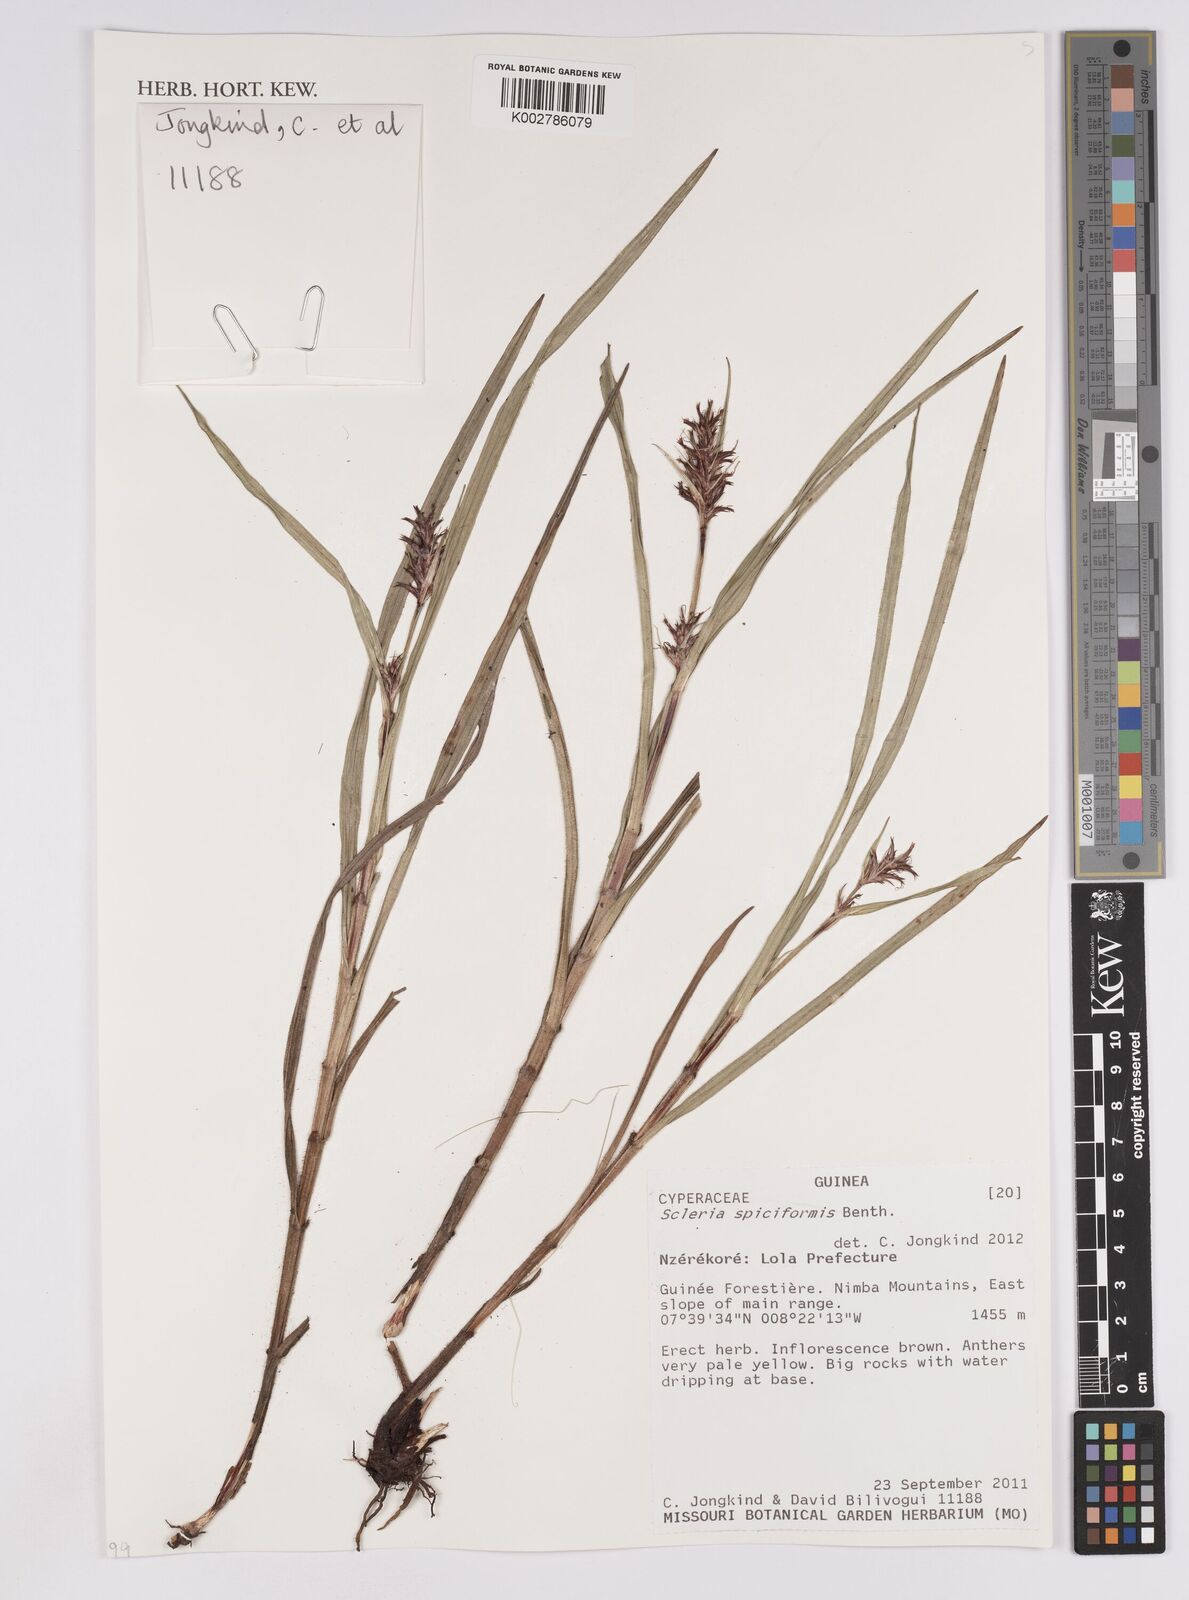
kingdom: Plantae
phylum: Tracheophyta
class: Liliopsida
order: Poales
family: Cyperaceae
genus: Scleria
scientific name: Scleria spiciformis
